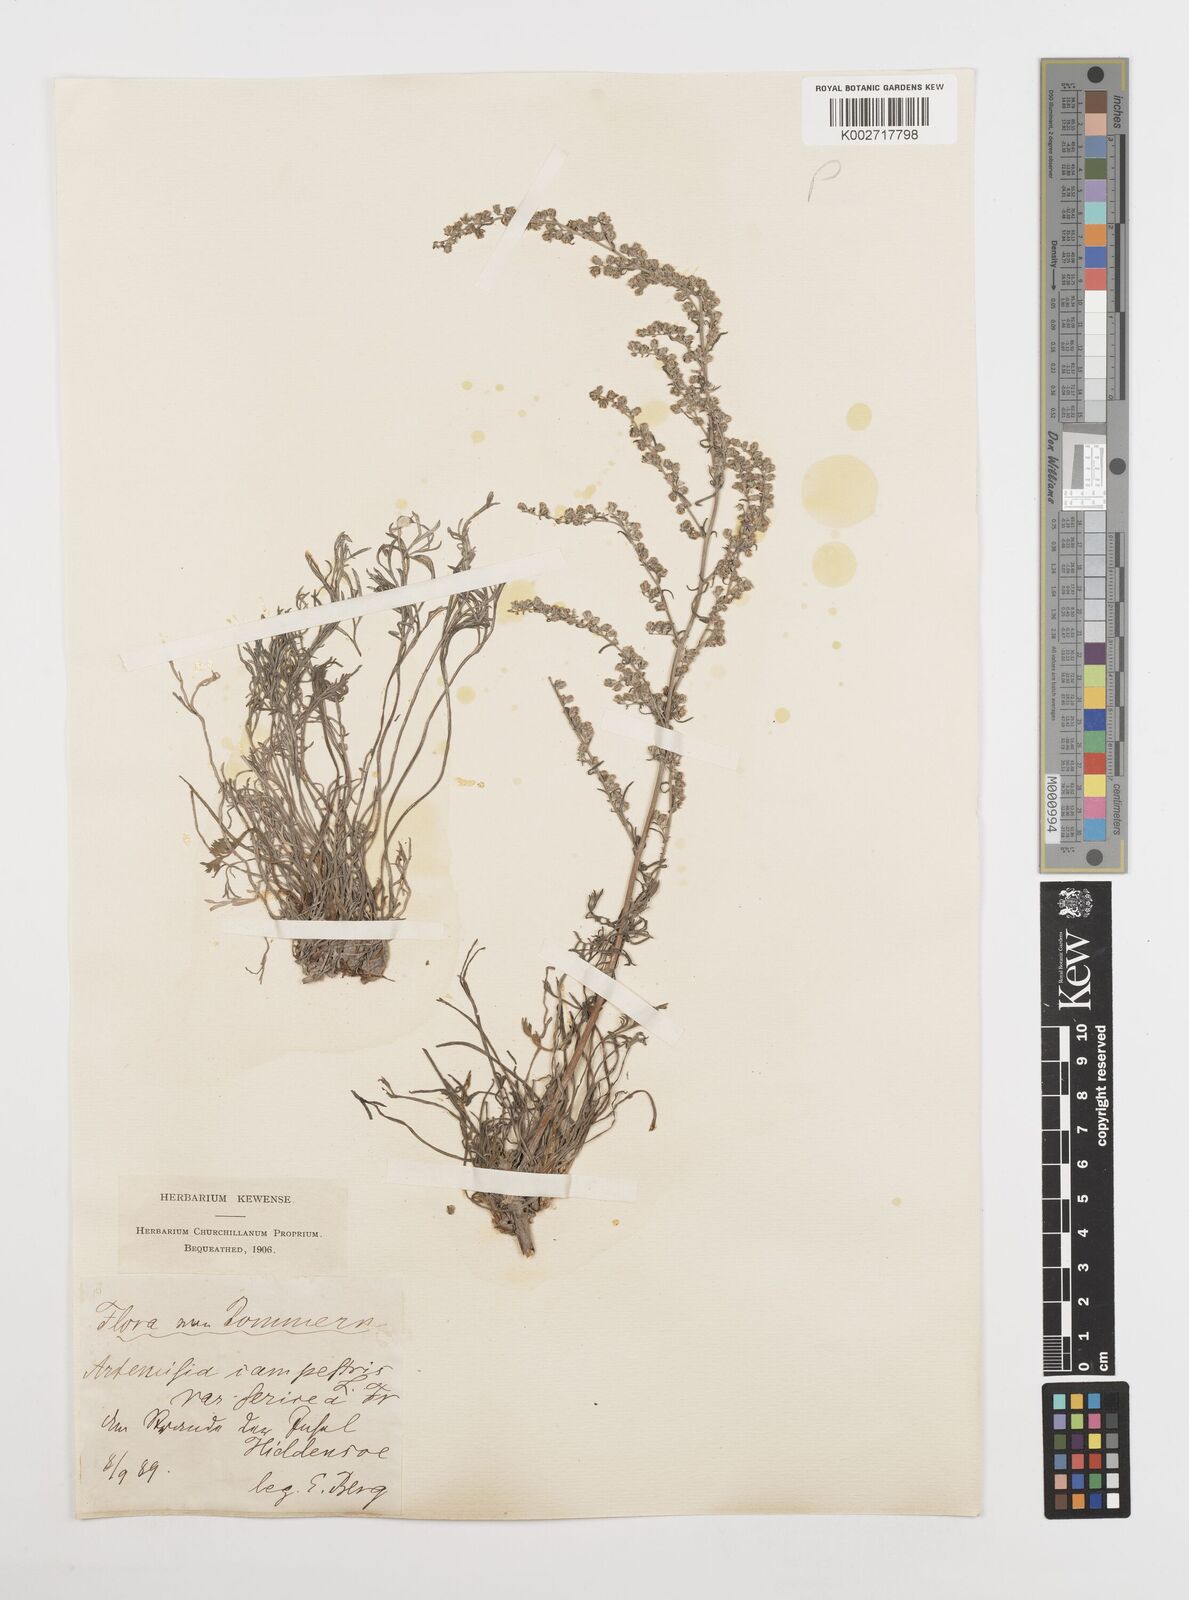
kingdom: Plantae
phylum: Tracheophyta
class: Magnoliopsida
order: Asterales
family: Asteraceae
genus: Artemisia
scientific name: Artemisia campestris
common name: Field wormwood
